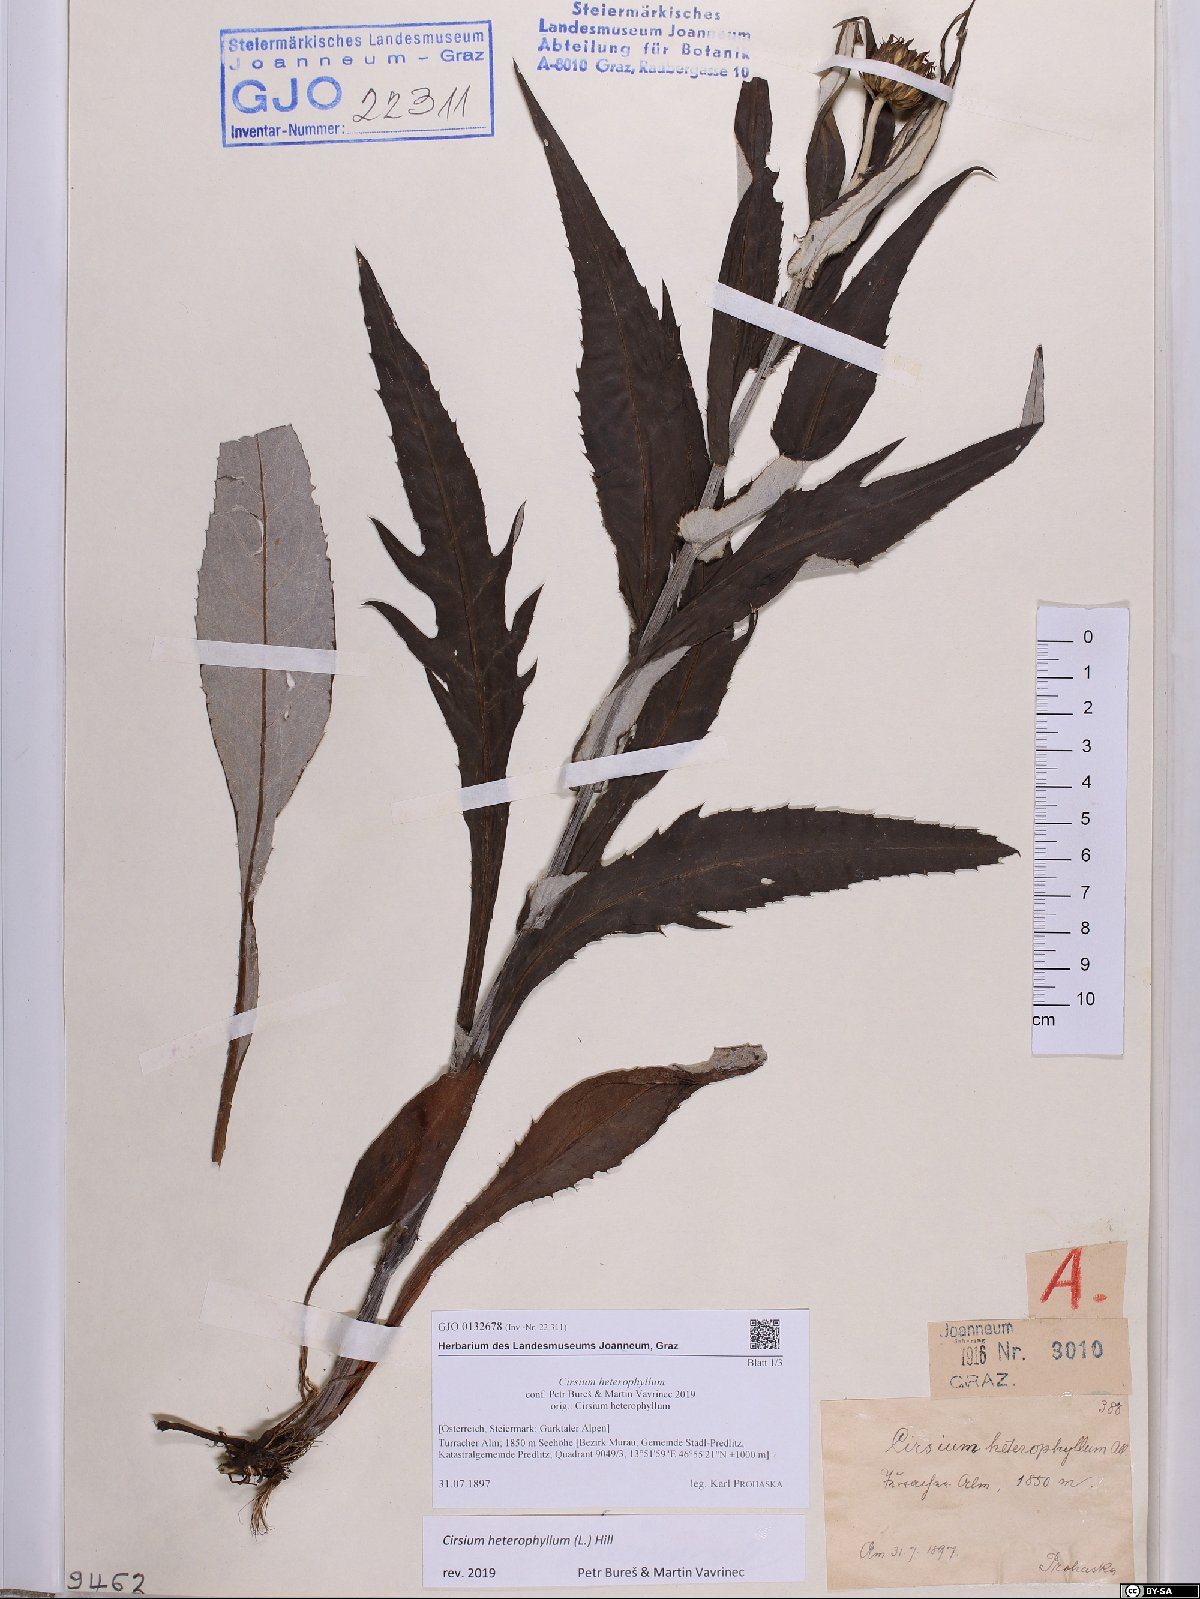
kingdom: Plantae
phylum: Tracheophyta
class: Magnoliopsida
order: Asterales
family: Asteraceae
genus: Cirsium
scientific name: Cirsium heterophyllum
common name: Melancholy thistle
